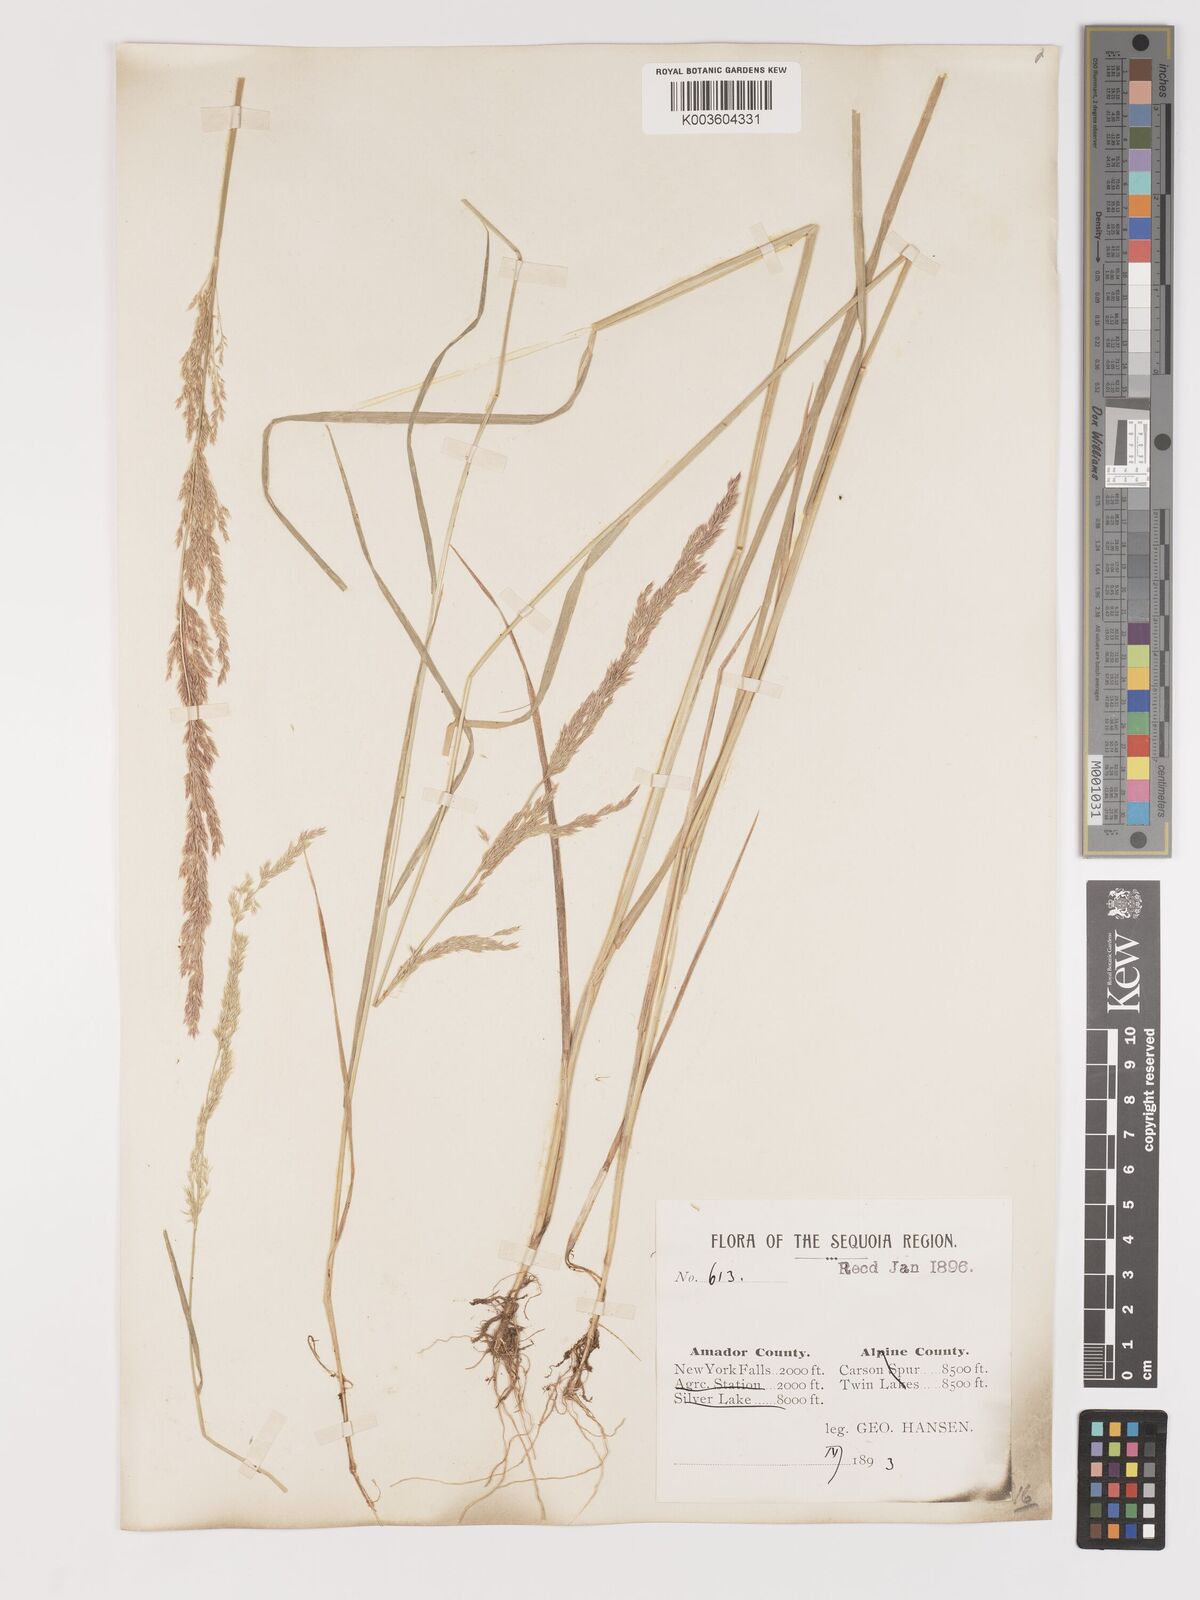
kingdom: Plantae
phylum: Tracheophyta
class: Liliopsida
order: Poales
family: Poaceae
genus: Agrostis
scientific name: Agrostis exarata
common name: Spike bent
